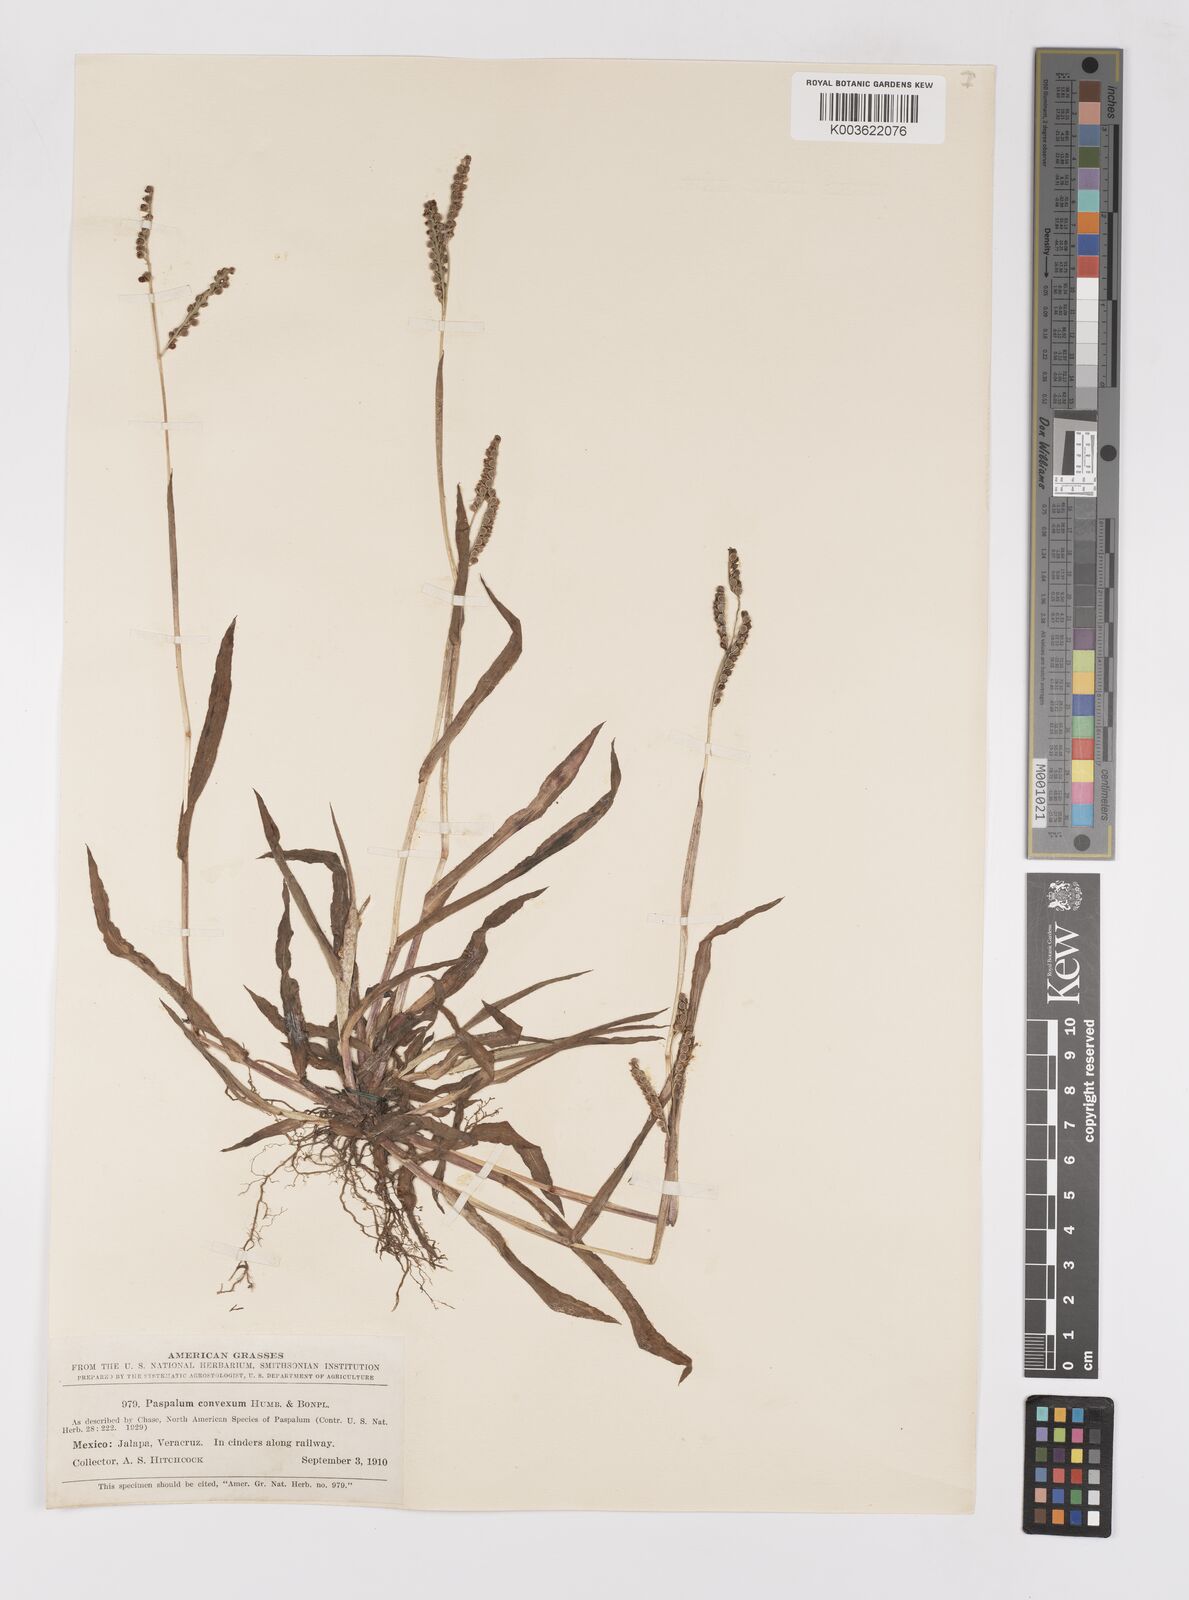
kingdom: Plantae
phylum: Tracheophyta
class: Liliopsida
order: Poales
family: Poaceae
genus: Paspalum
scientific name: Paspalum convexum
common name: Latin american crowngrass
